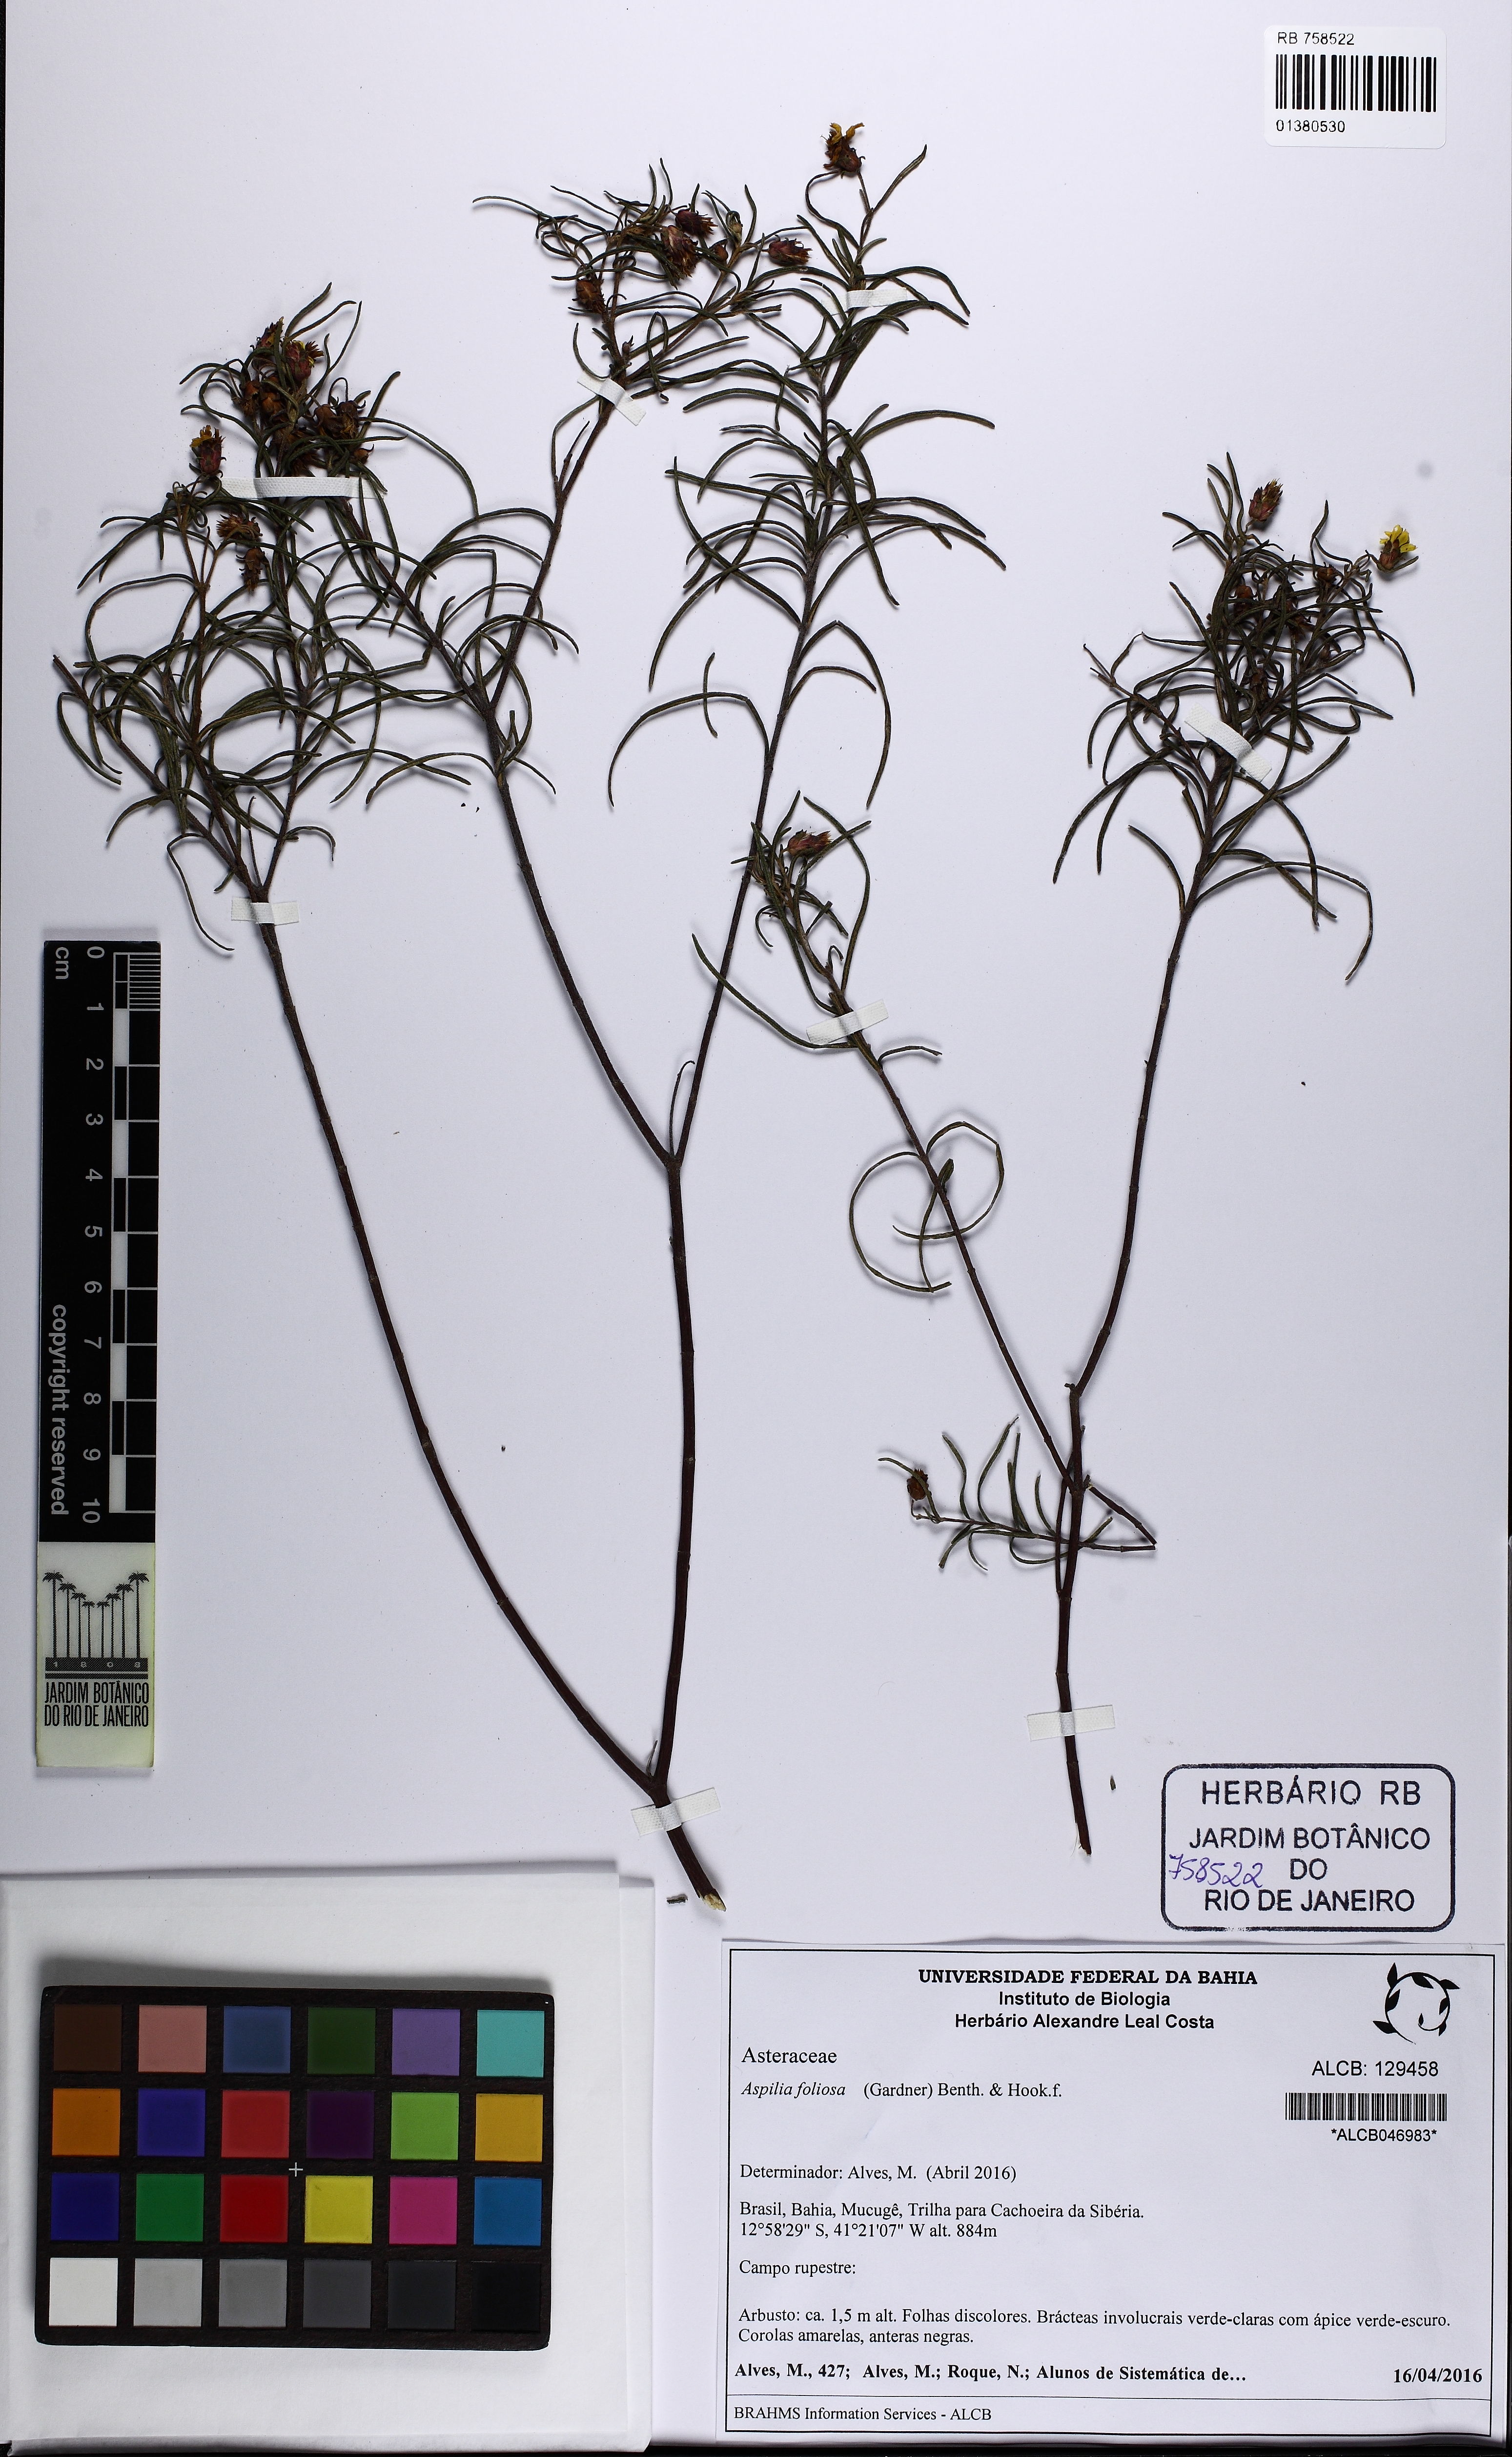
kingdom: Plantae
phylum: Tracheophyta
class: Magnoliopsida
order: Asterales
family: Asteraceae
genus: Aspilia
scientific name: Aspilia foliosa
